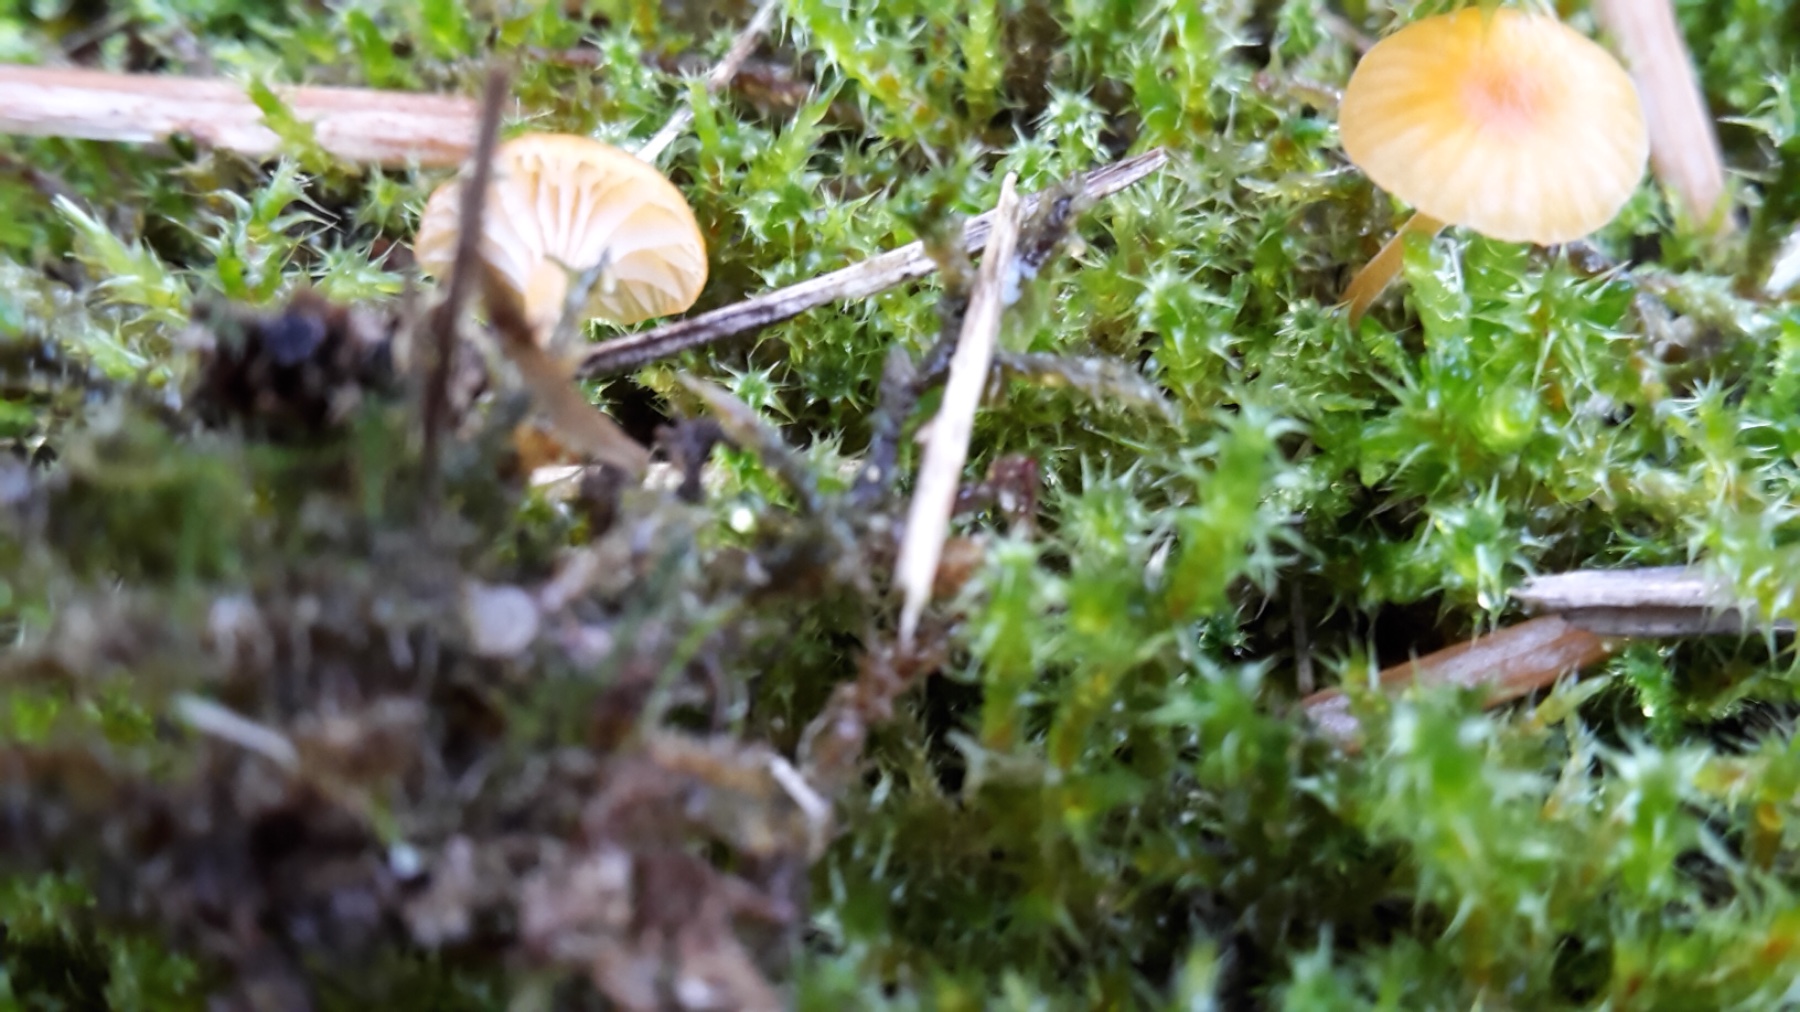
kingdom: Fungi
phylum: Basidiomycota
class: Agaricomycetes
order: Hymenochaetales
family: Rickenellaceae
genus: Rickenella
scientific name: Rickenella fibula
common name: orange mosnavlehat
